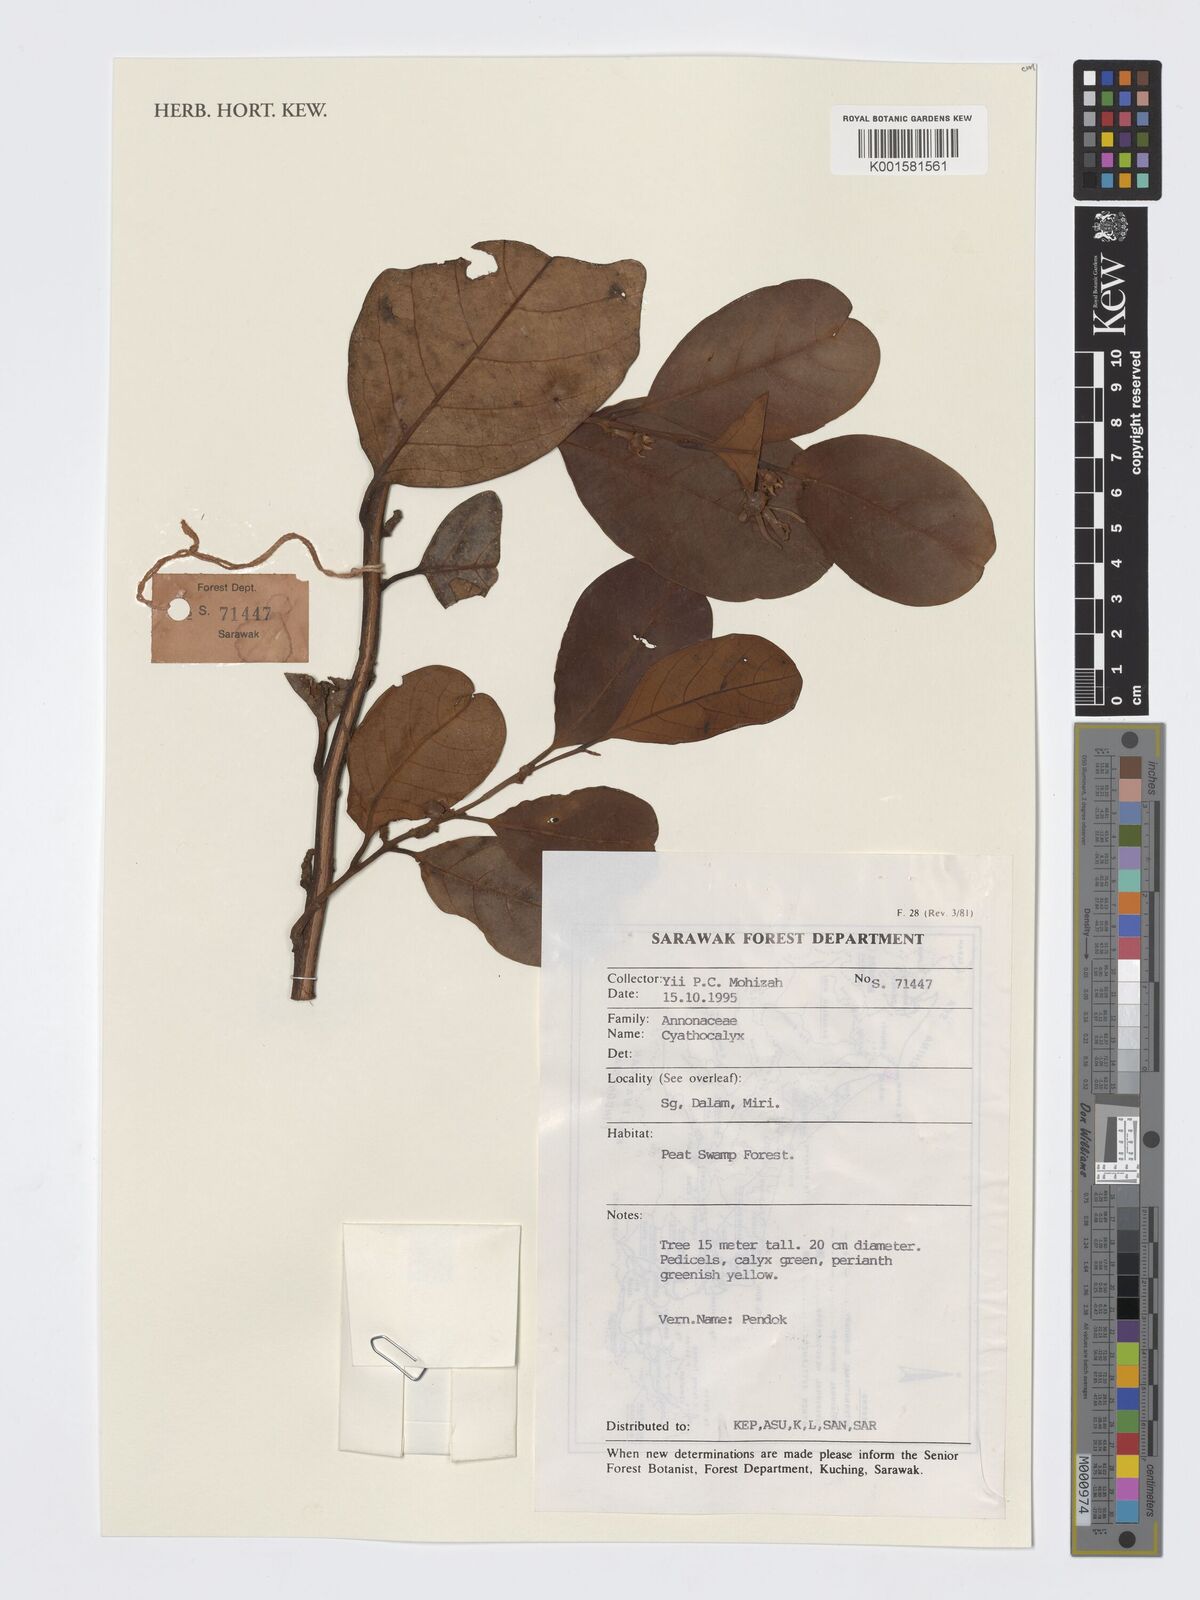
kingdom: Plantae
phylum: Tracheophyta
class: Magnoliopsida
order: Magnoliales
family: Annonaceae
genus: Cyathocalyx
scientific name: Cyathocalyx
